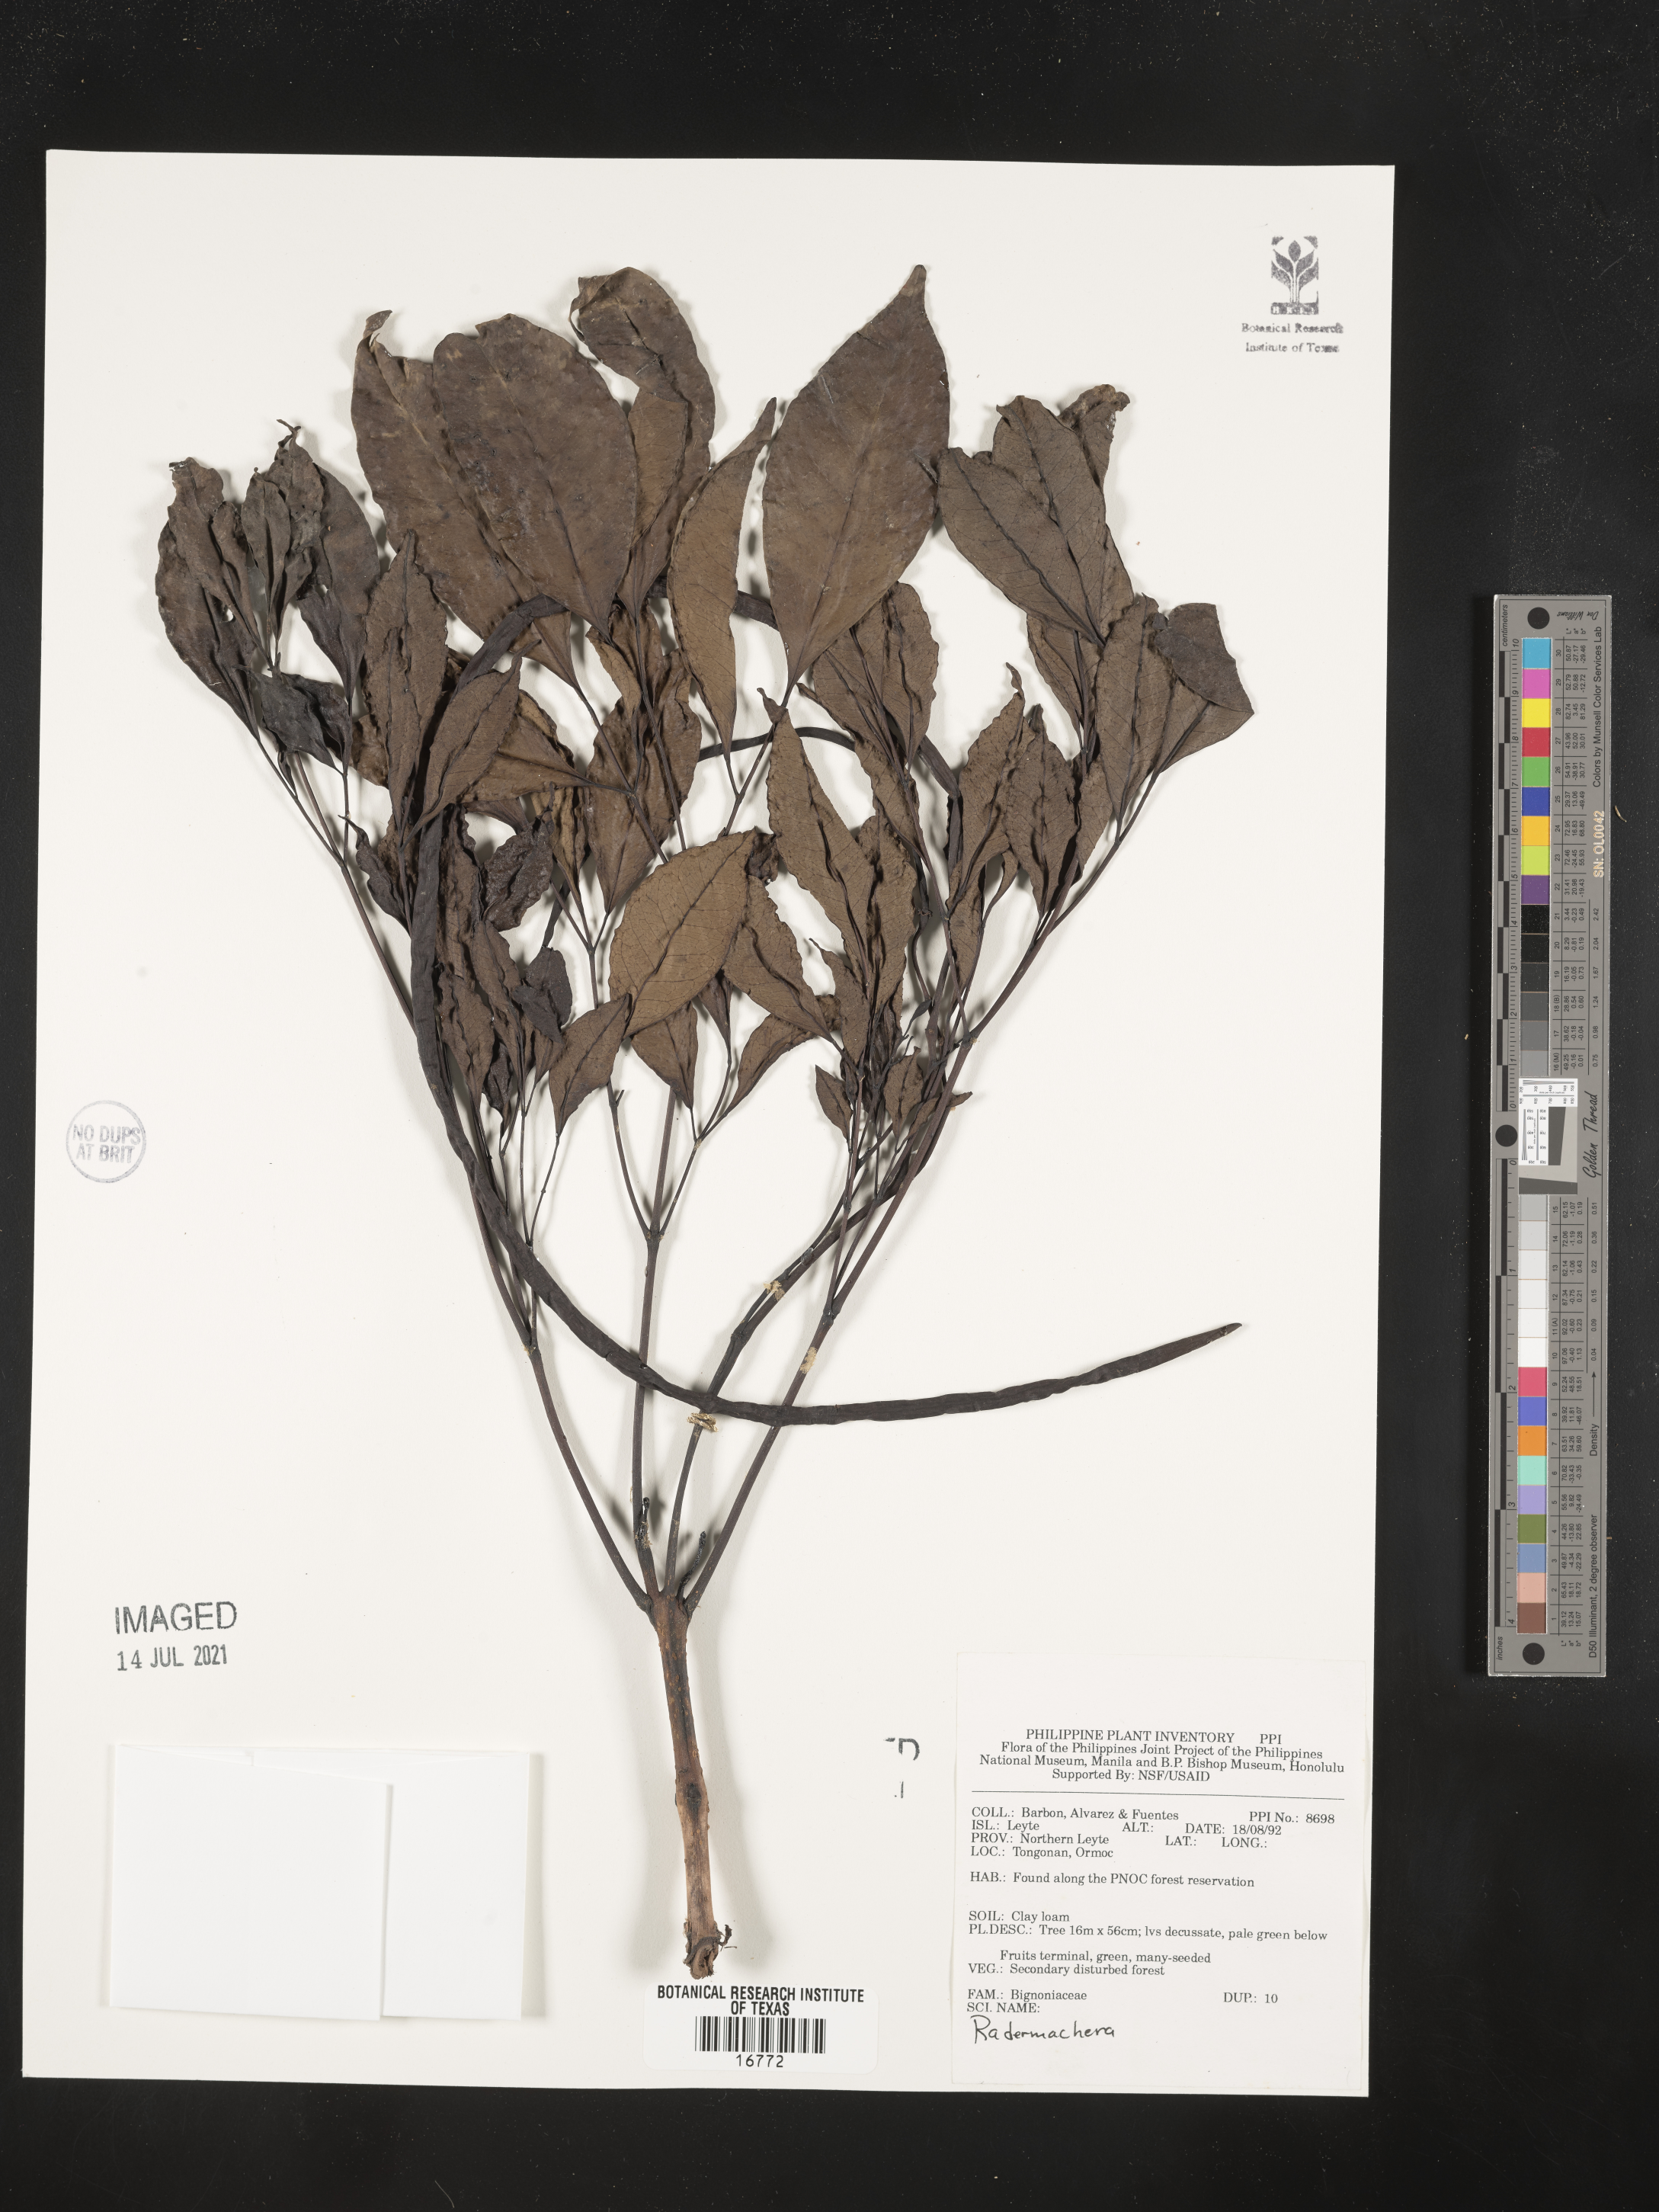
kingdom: Plantae
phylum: Tracheophyta
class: Magnoliopsida
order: Lamiales
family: Bignoniaceae
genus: Radermachera
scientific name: Radermachera
